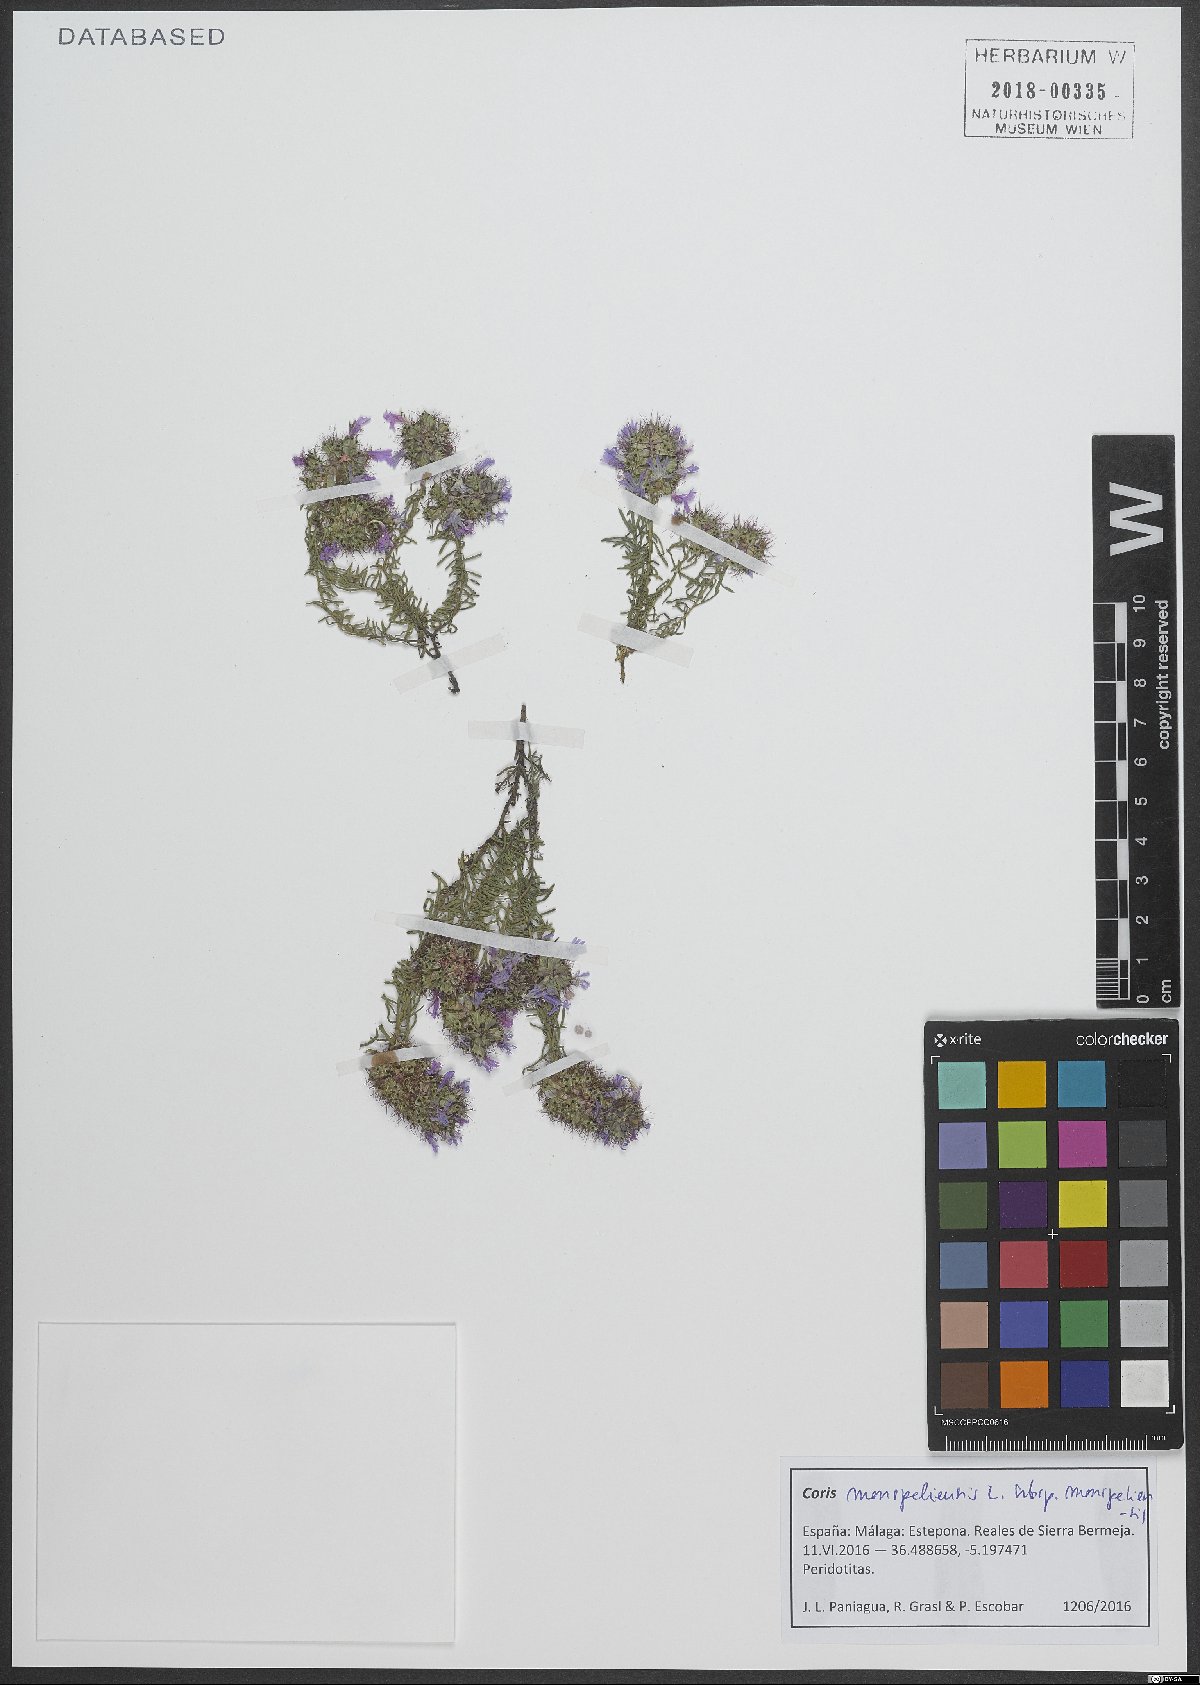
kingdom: Plantae
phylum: Tracheophyta
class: Magnoliopsida
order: Ericales
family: Primulaceae
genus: Coris
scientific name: Coris monspeliensis
